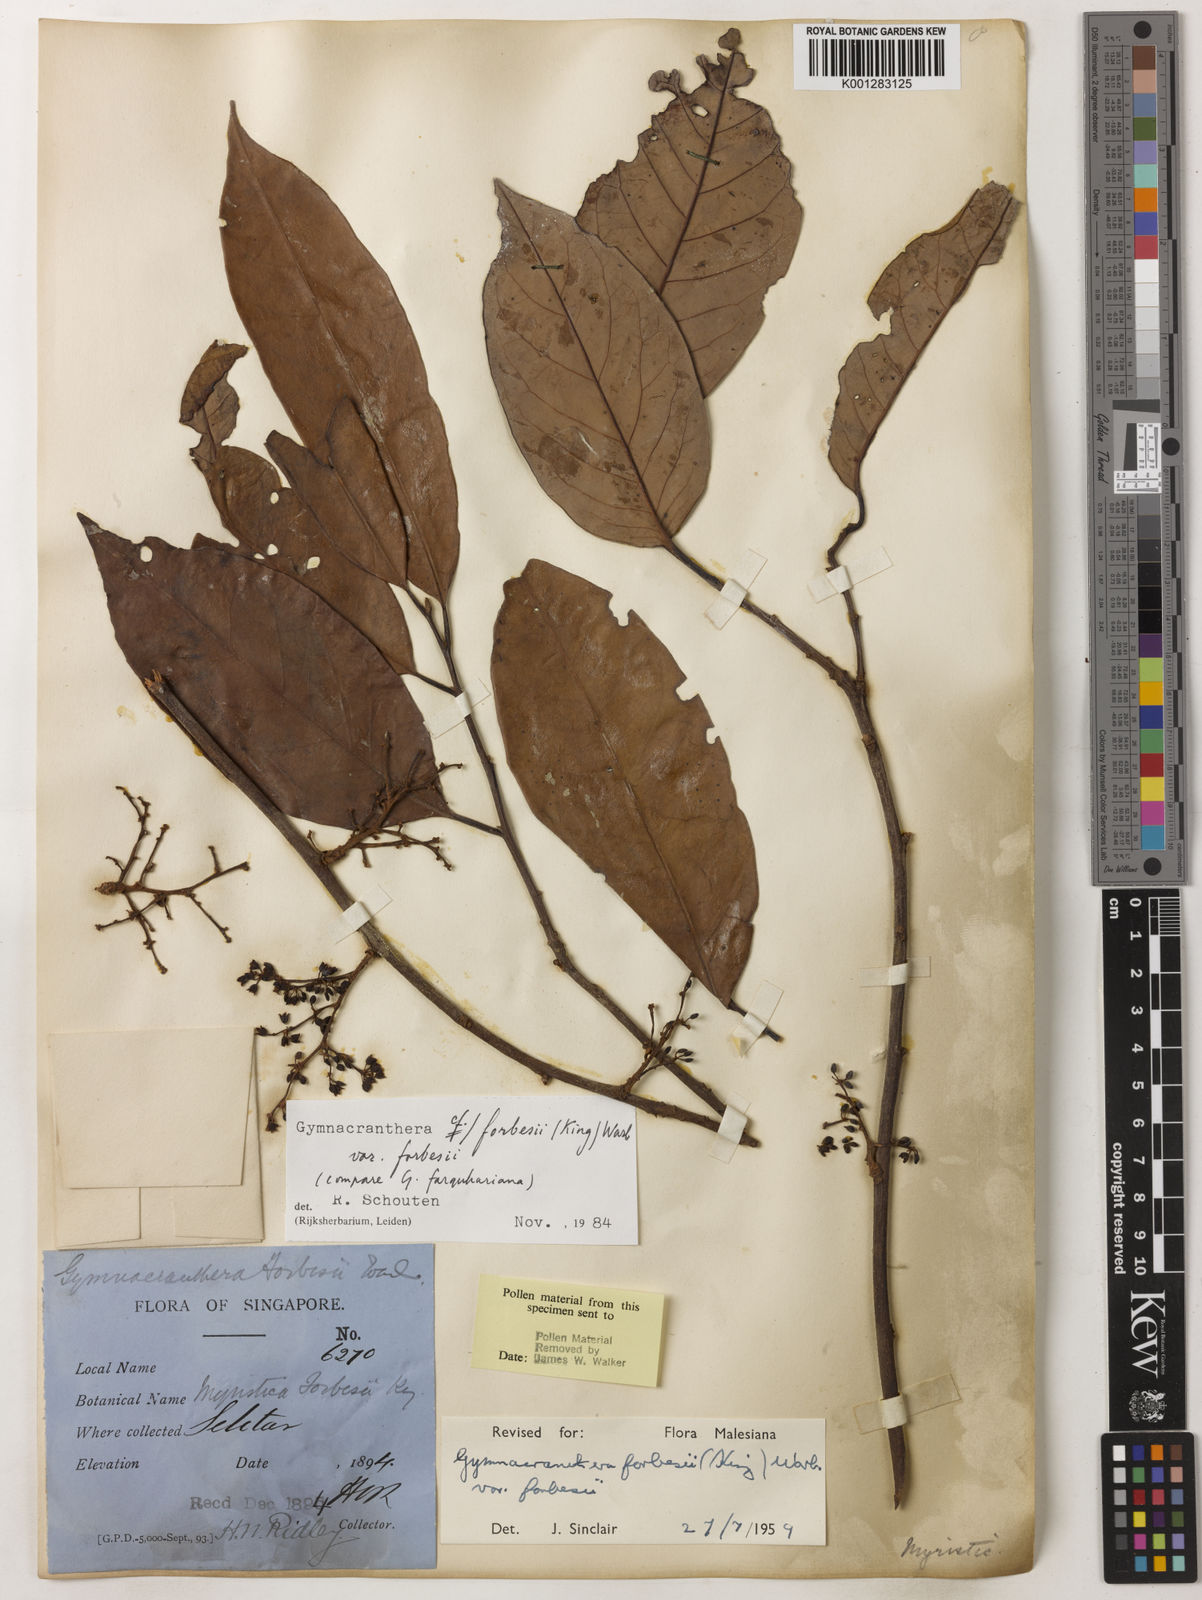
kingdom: Plantae
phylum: Tracheophyta
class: Magnoliopsida
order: Magnoliales
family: Myristicaceae
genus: Gymnacranthera
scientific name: Gymnacranthera forbesii
